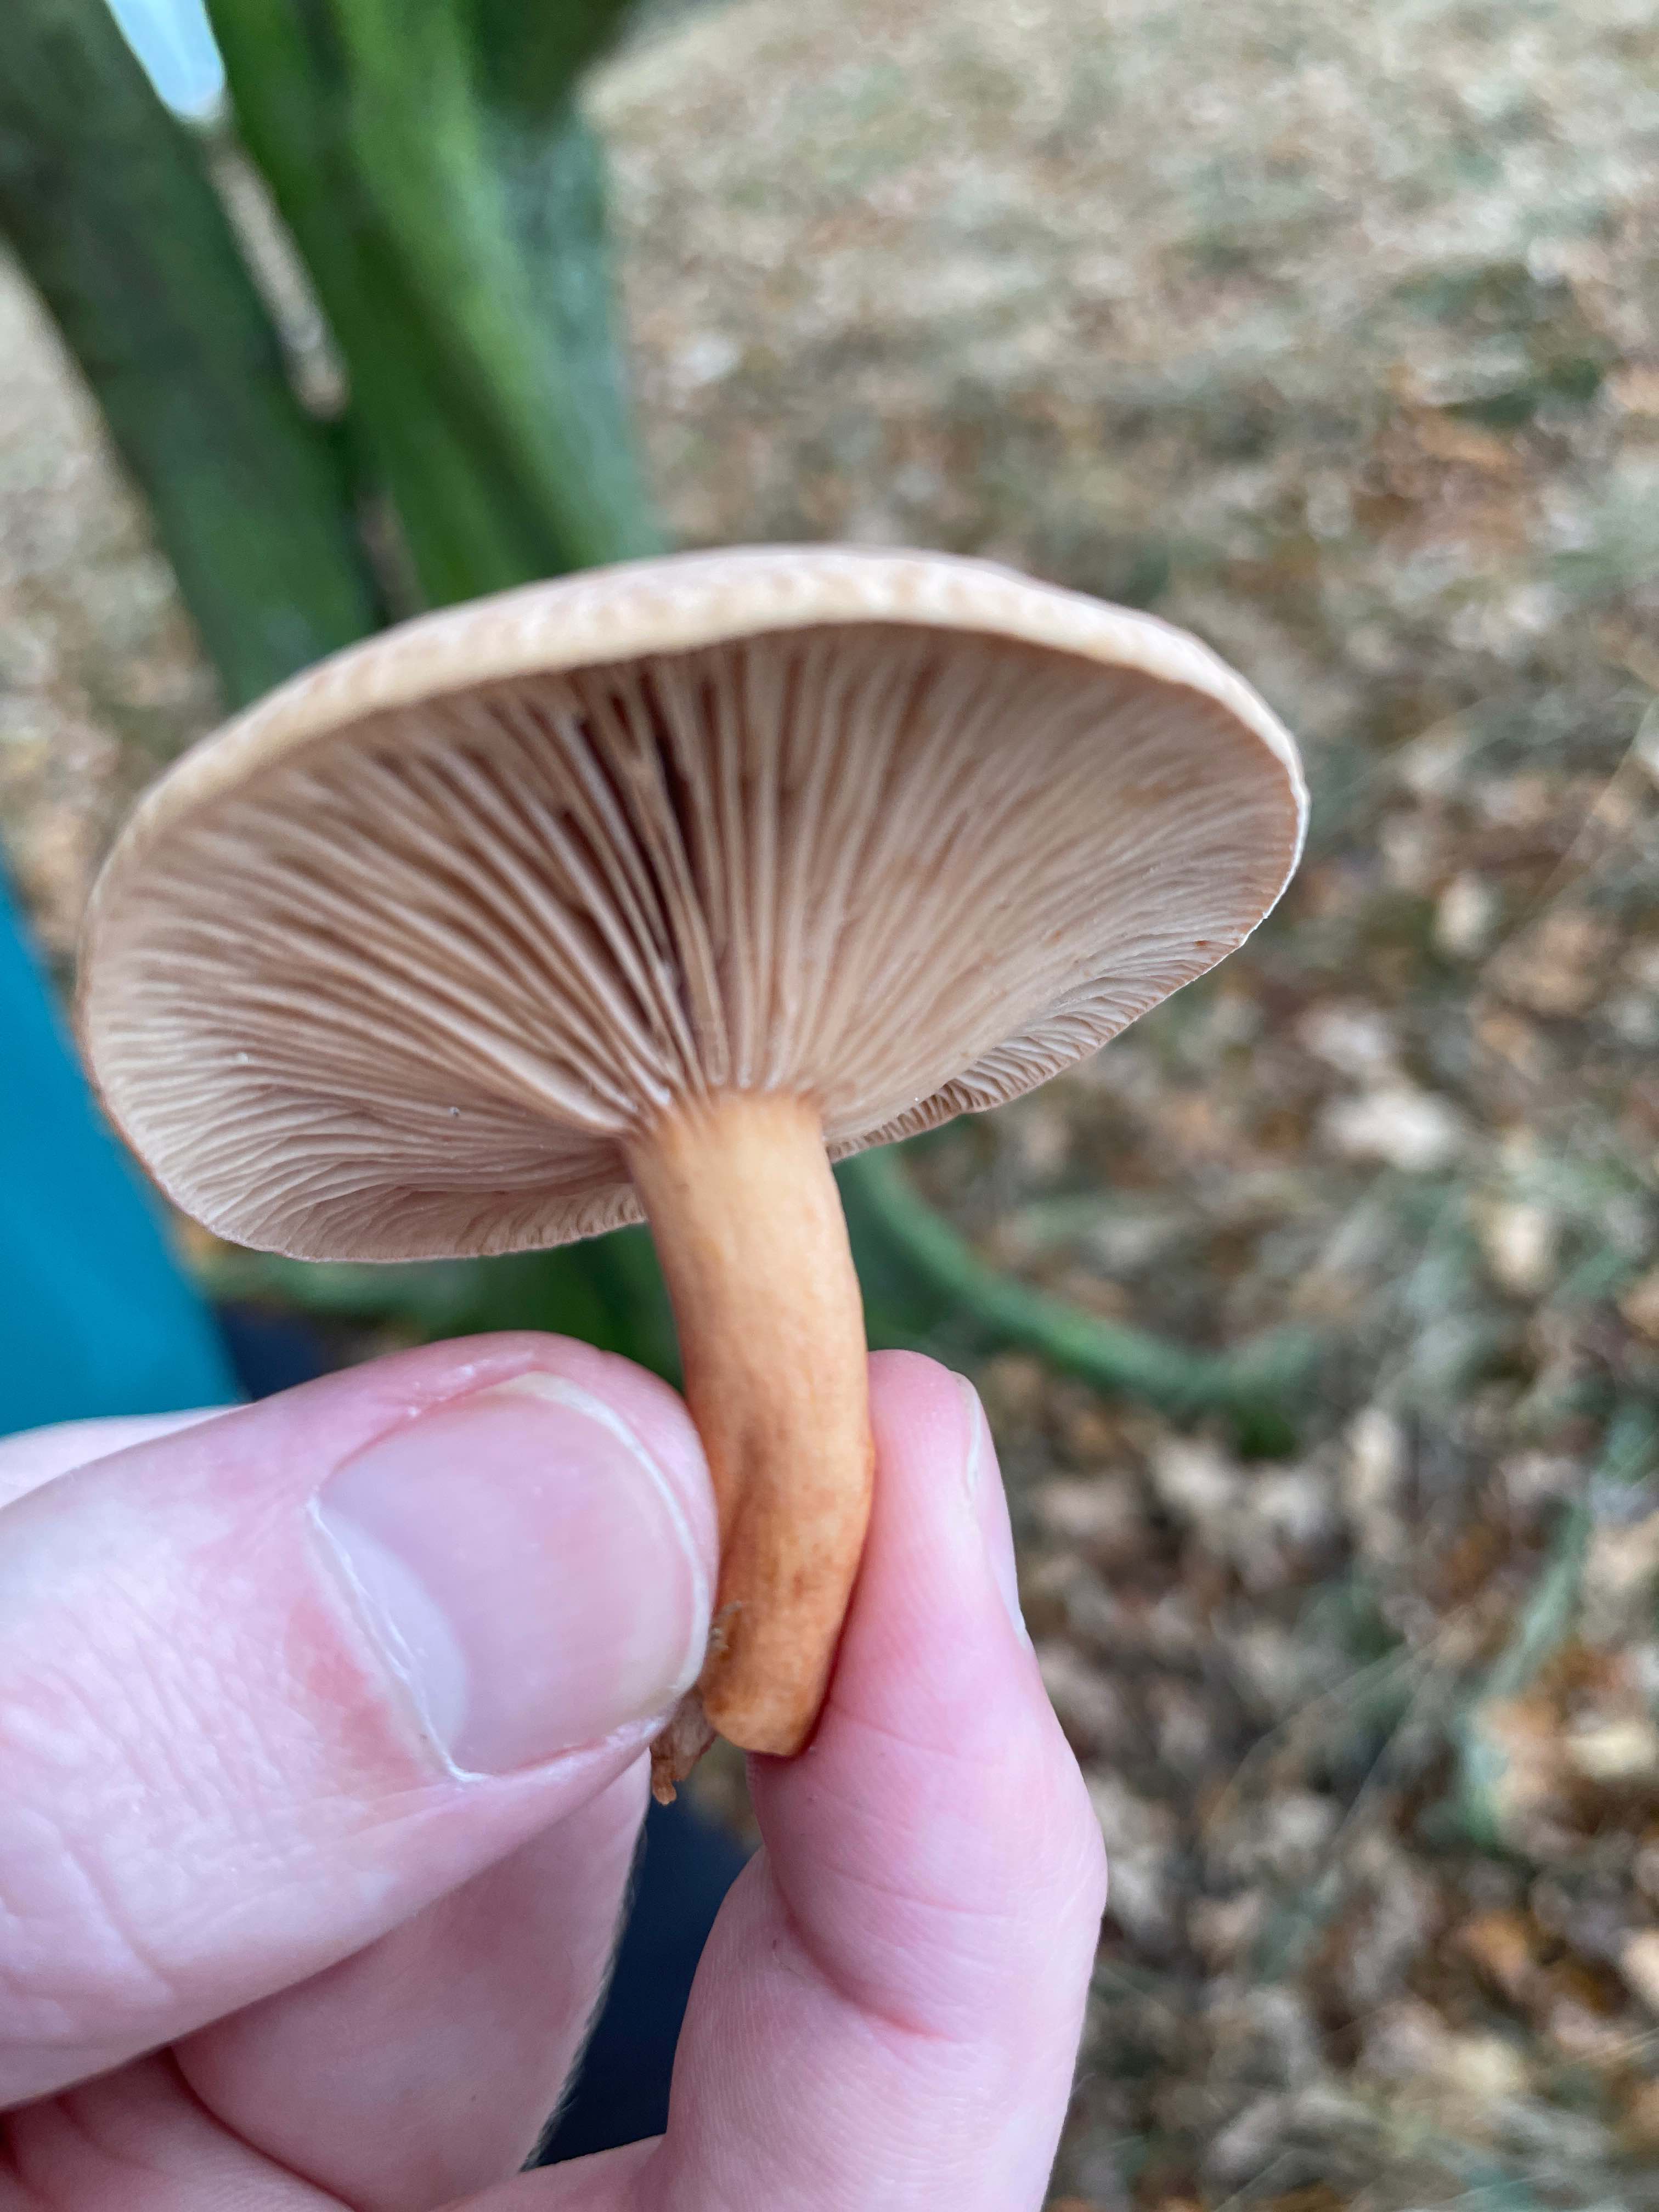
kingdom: Fungi
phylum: Basidiomycota
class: Agaricomycetes
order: Russulales
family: Russulaceae
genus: Lactarius
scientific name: Lactarius
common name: mælkehat
